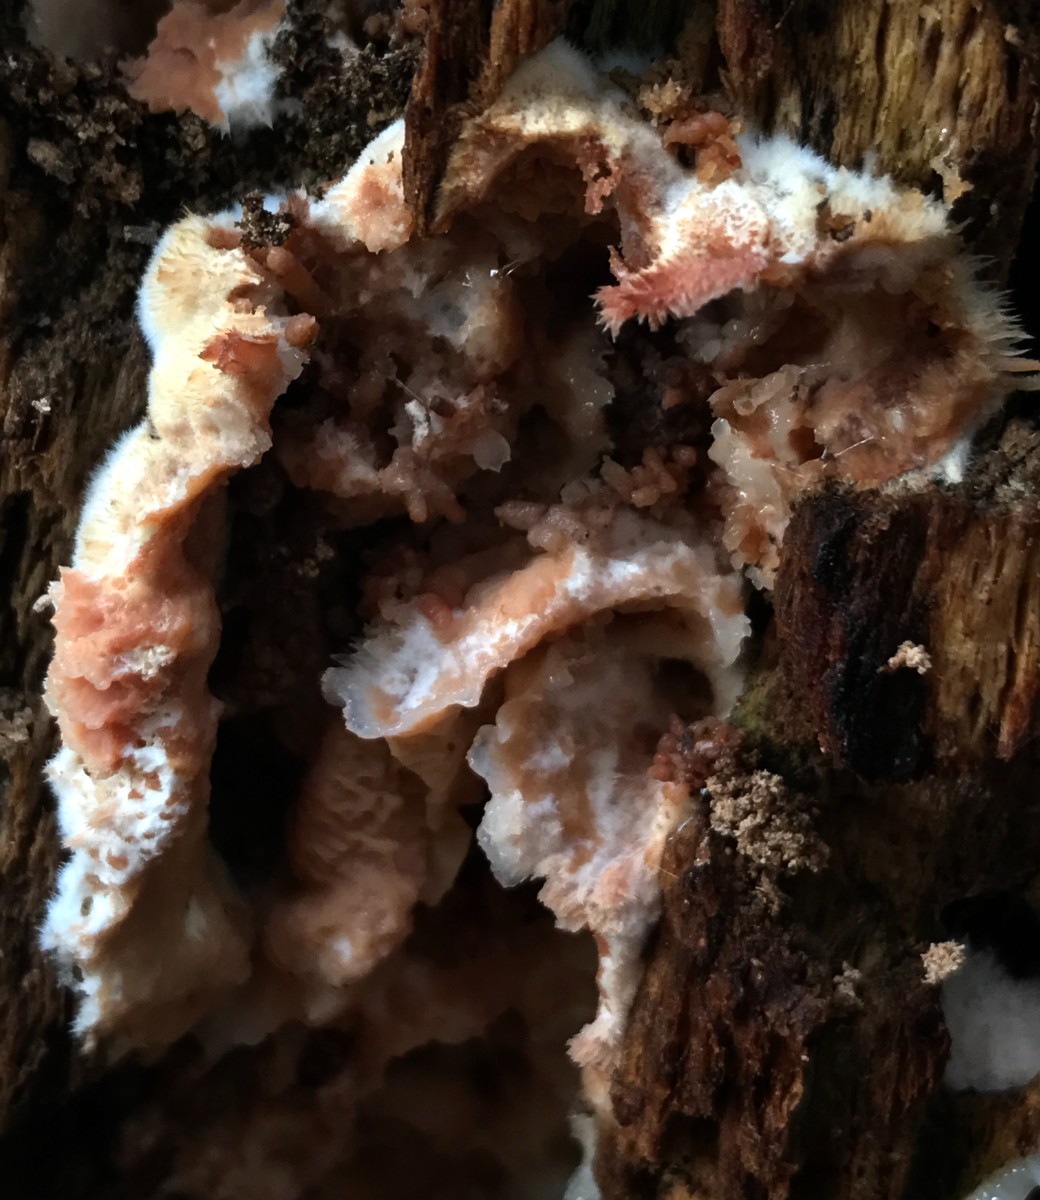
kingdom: Fungi
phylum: Basidiomycota
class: Agaricomycetes
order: Polyporales
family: Meruliaceae
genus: Phlebia
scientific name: Phlebia tremellosa
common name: bævrende åresvamp
